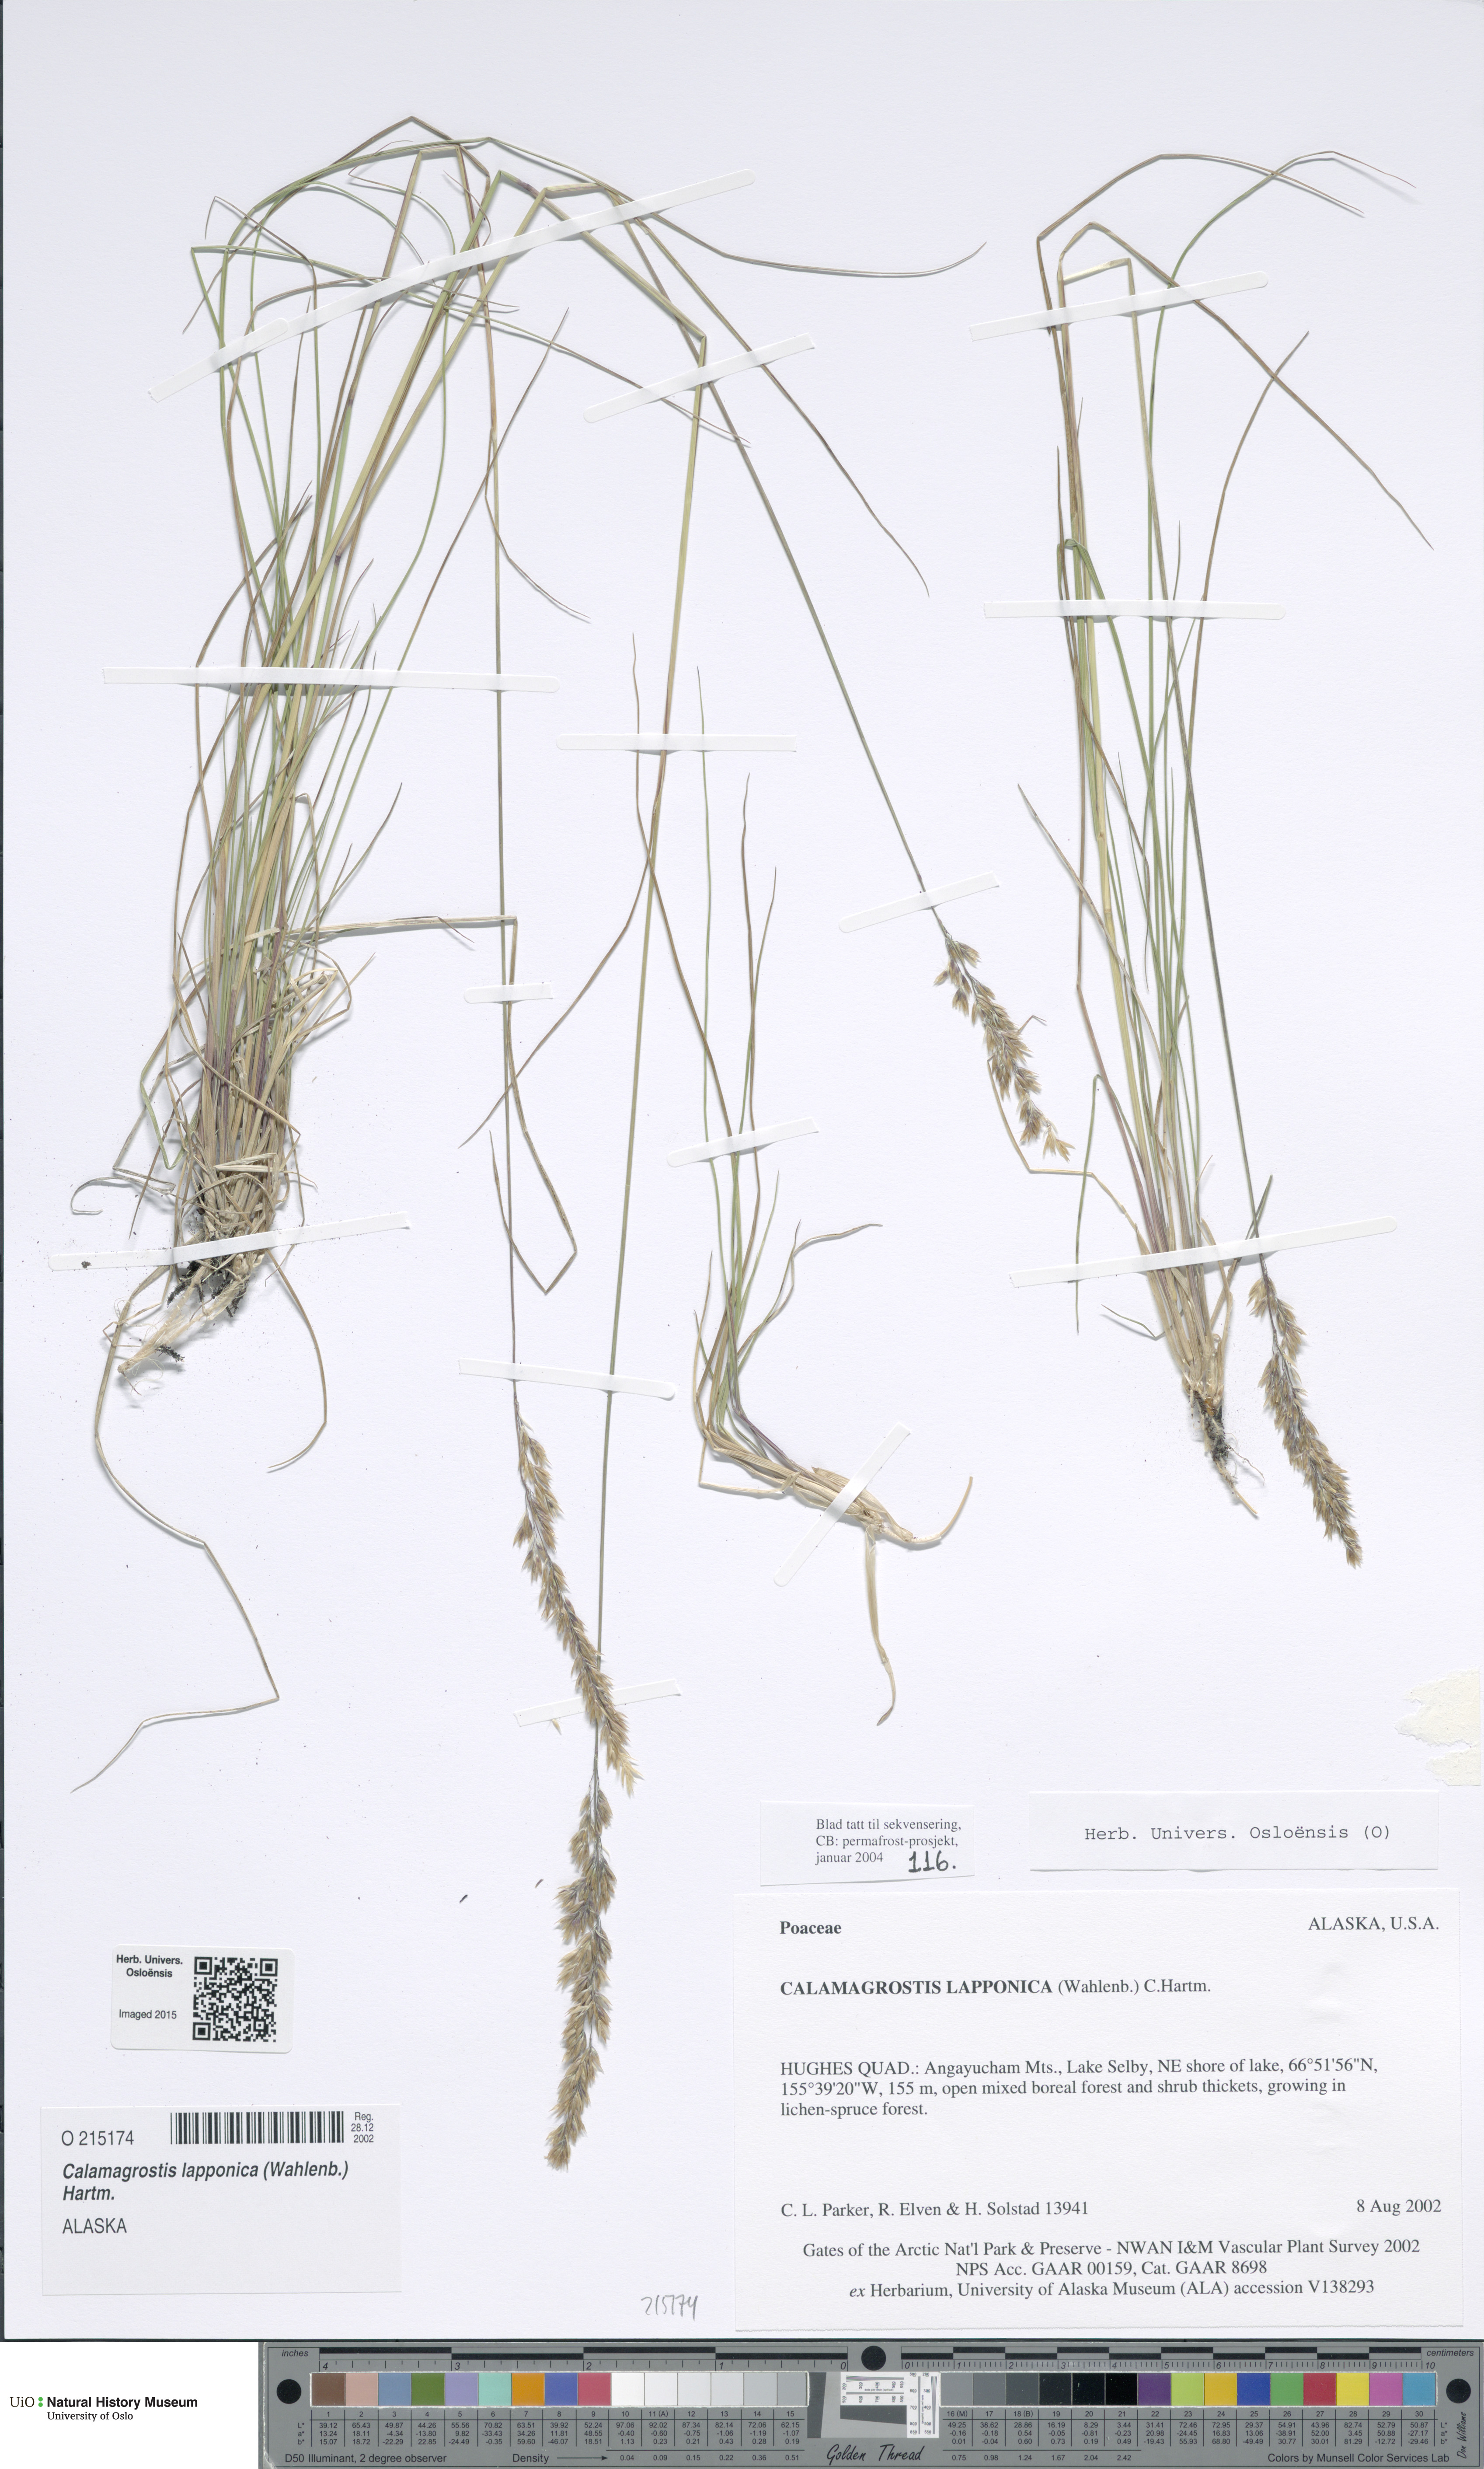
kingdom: Plantae
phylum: Tracheophyta
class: Liliopsida
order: Poales
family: Poaceae
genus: Calamagrostis
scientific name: Calamagrostis lapponica
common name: Lapland reedgrass
